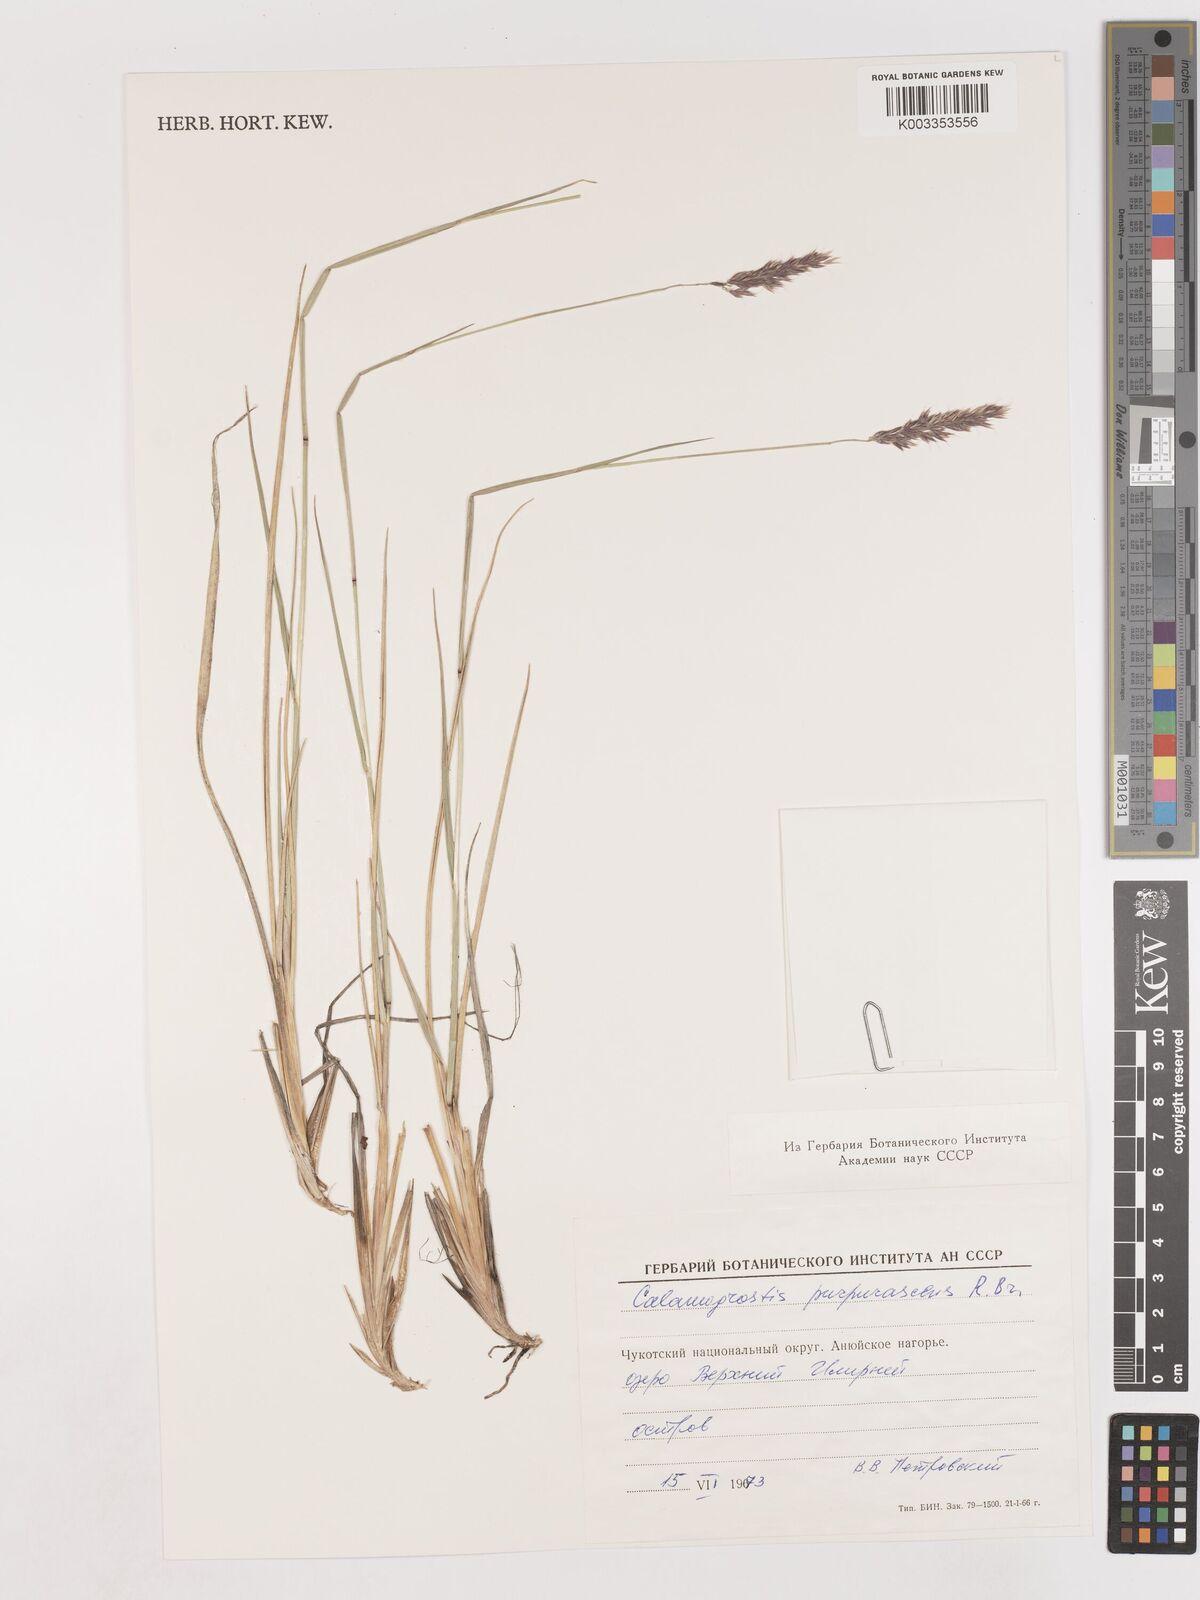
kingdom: Plantae
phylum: Tracheophyta
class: Liliopsida
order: Poales
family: Poaceae
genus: Calamagrostis
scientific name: Calamagrostis purpurascens
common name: Purple reedgrass
